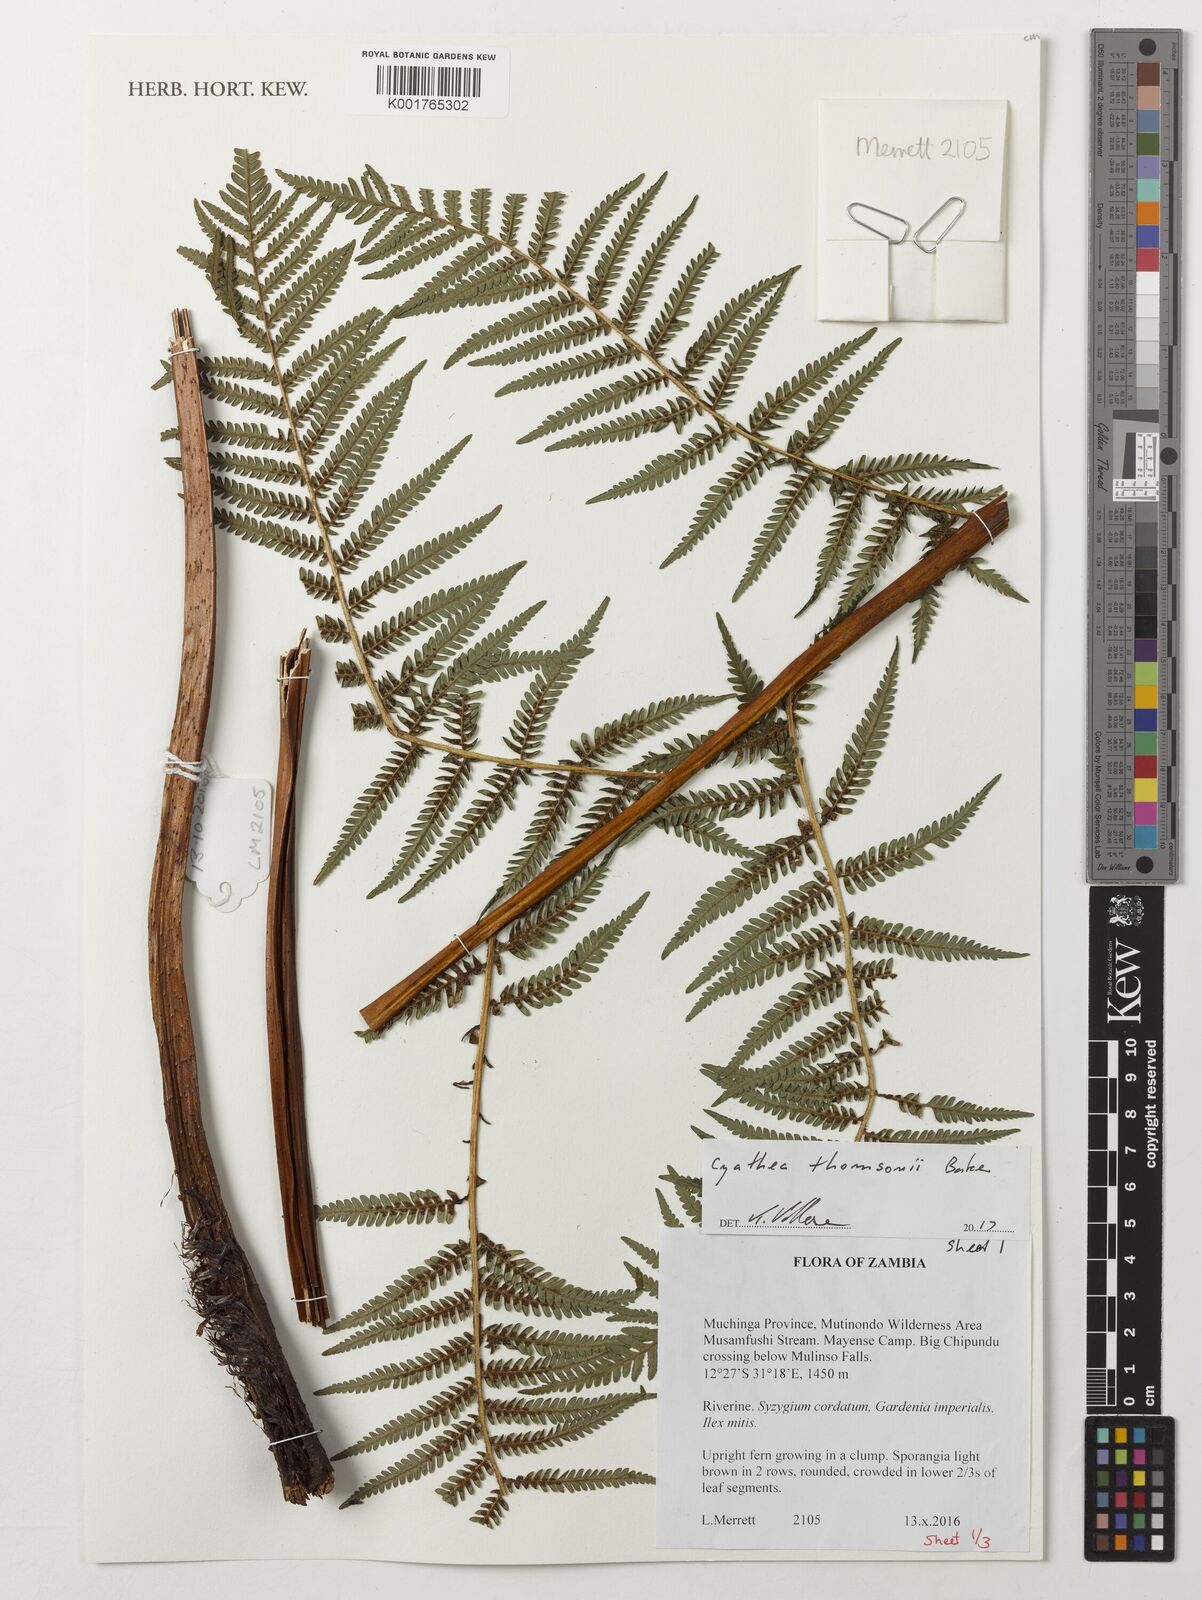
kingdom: Plantae
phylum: Tracheophyta
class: Polypodiopsida
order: Cyatheales
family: Cyatheaceae
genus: Alsophila
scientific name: Alsophila thomsonii
